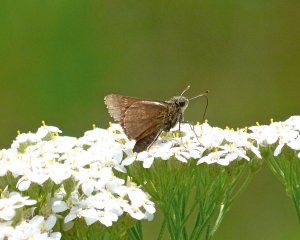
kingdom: Animalia
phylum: Arthropoda
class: Insecta
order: Lepidoptera
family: Hesperiidae
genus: Ochlodes
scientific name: Ochlodes sylvanoides
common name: Woodland Skipper
